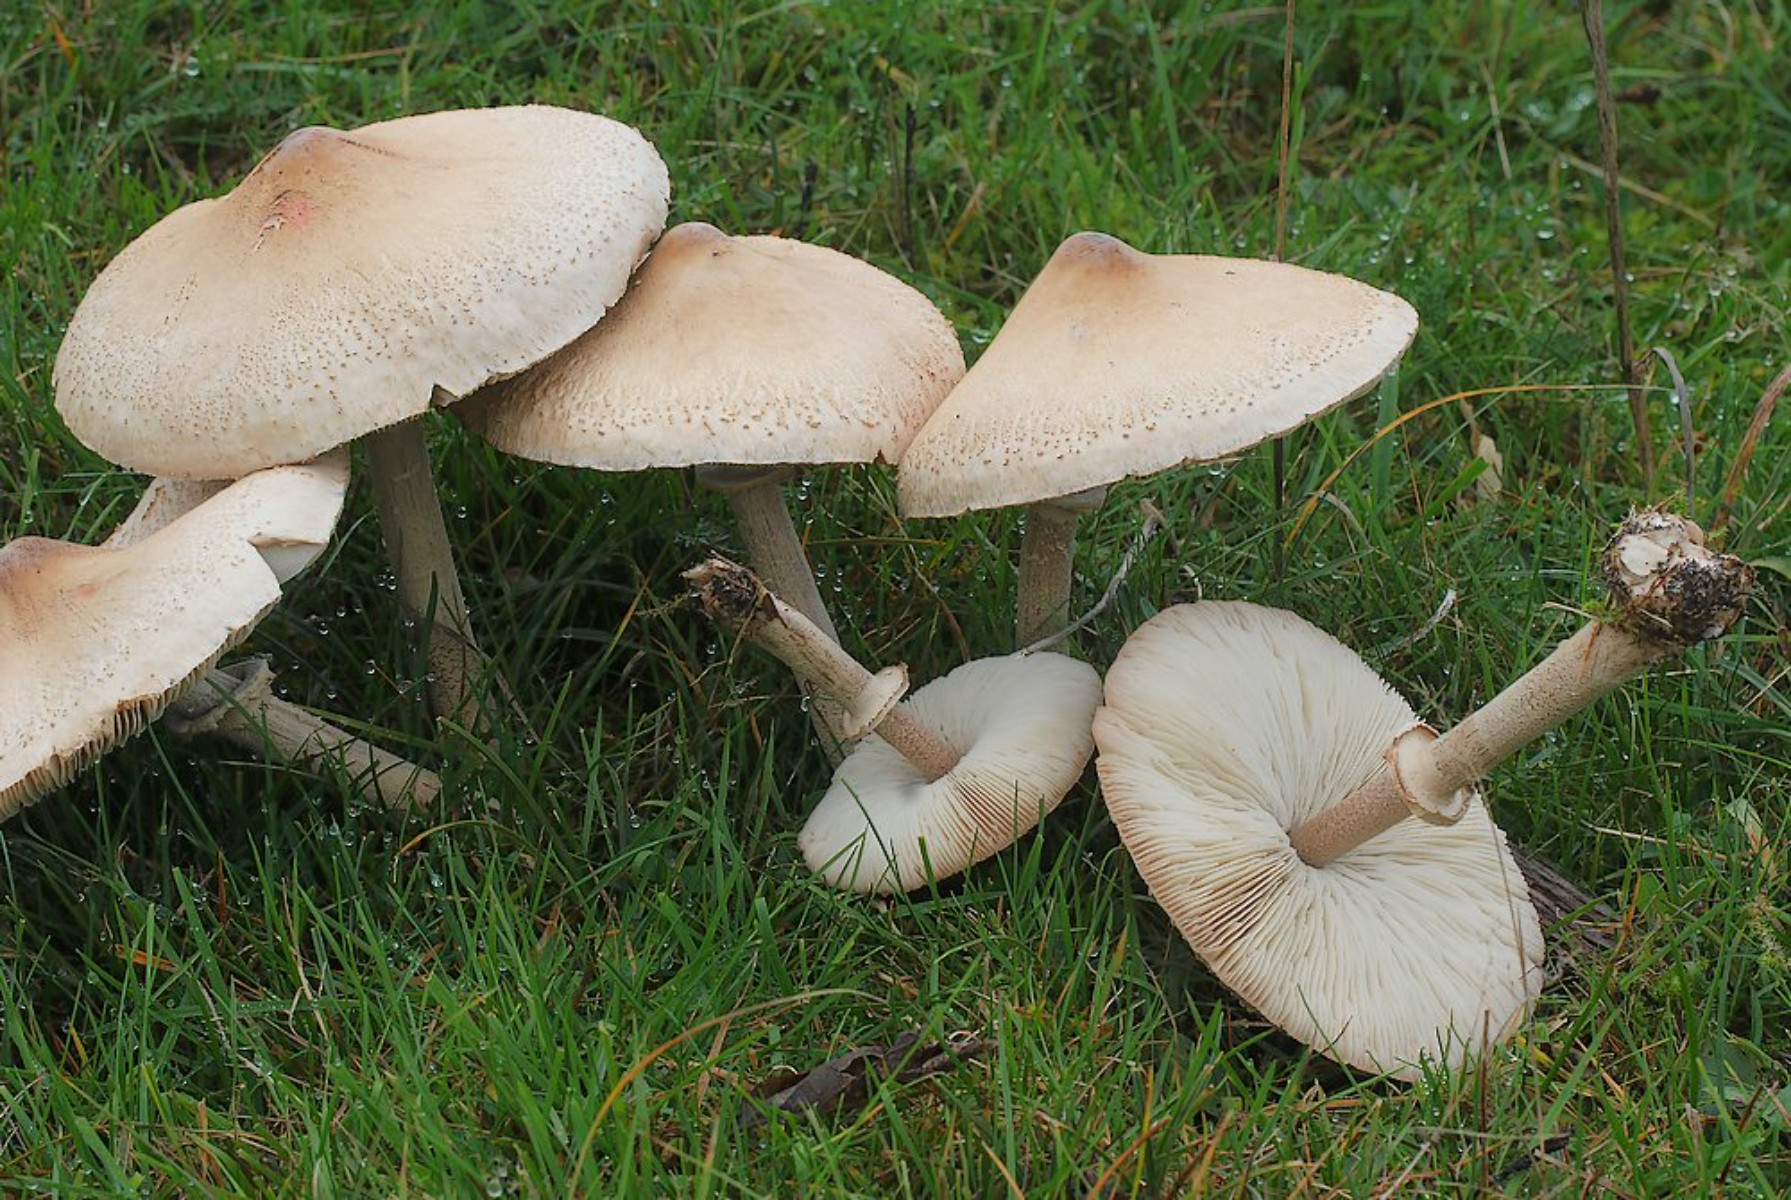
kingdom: Fungi
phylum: Basidiomycota
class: Agaricomycetes
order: Agaricales
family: Agaricaceae
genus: Macrolepiota
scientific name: Macrolepiota excoriata
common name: mark-kæmpeparasolhat
